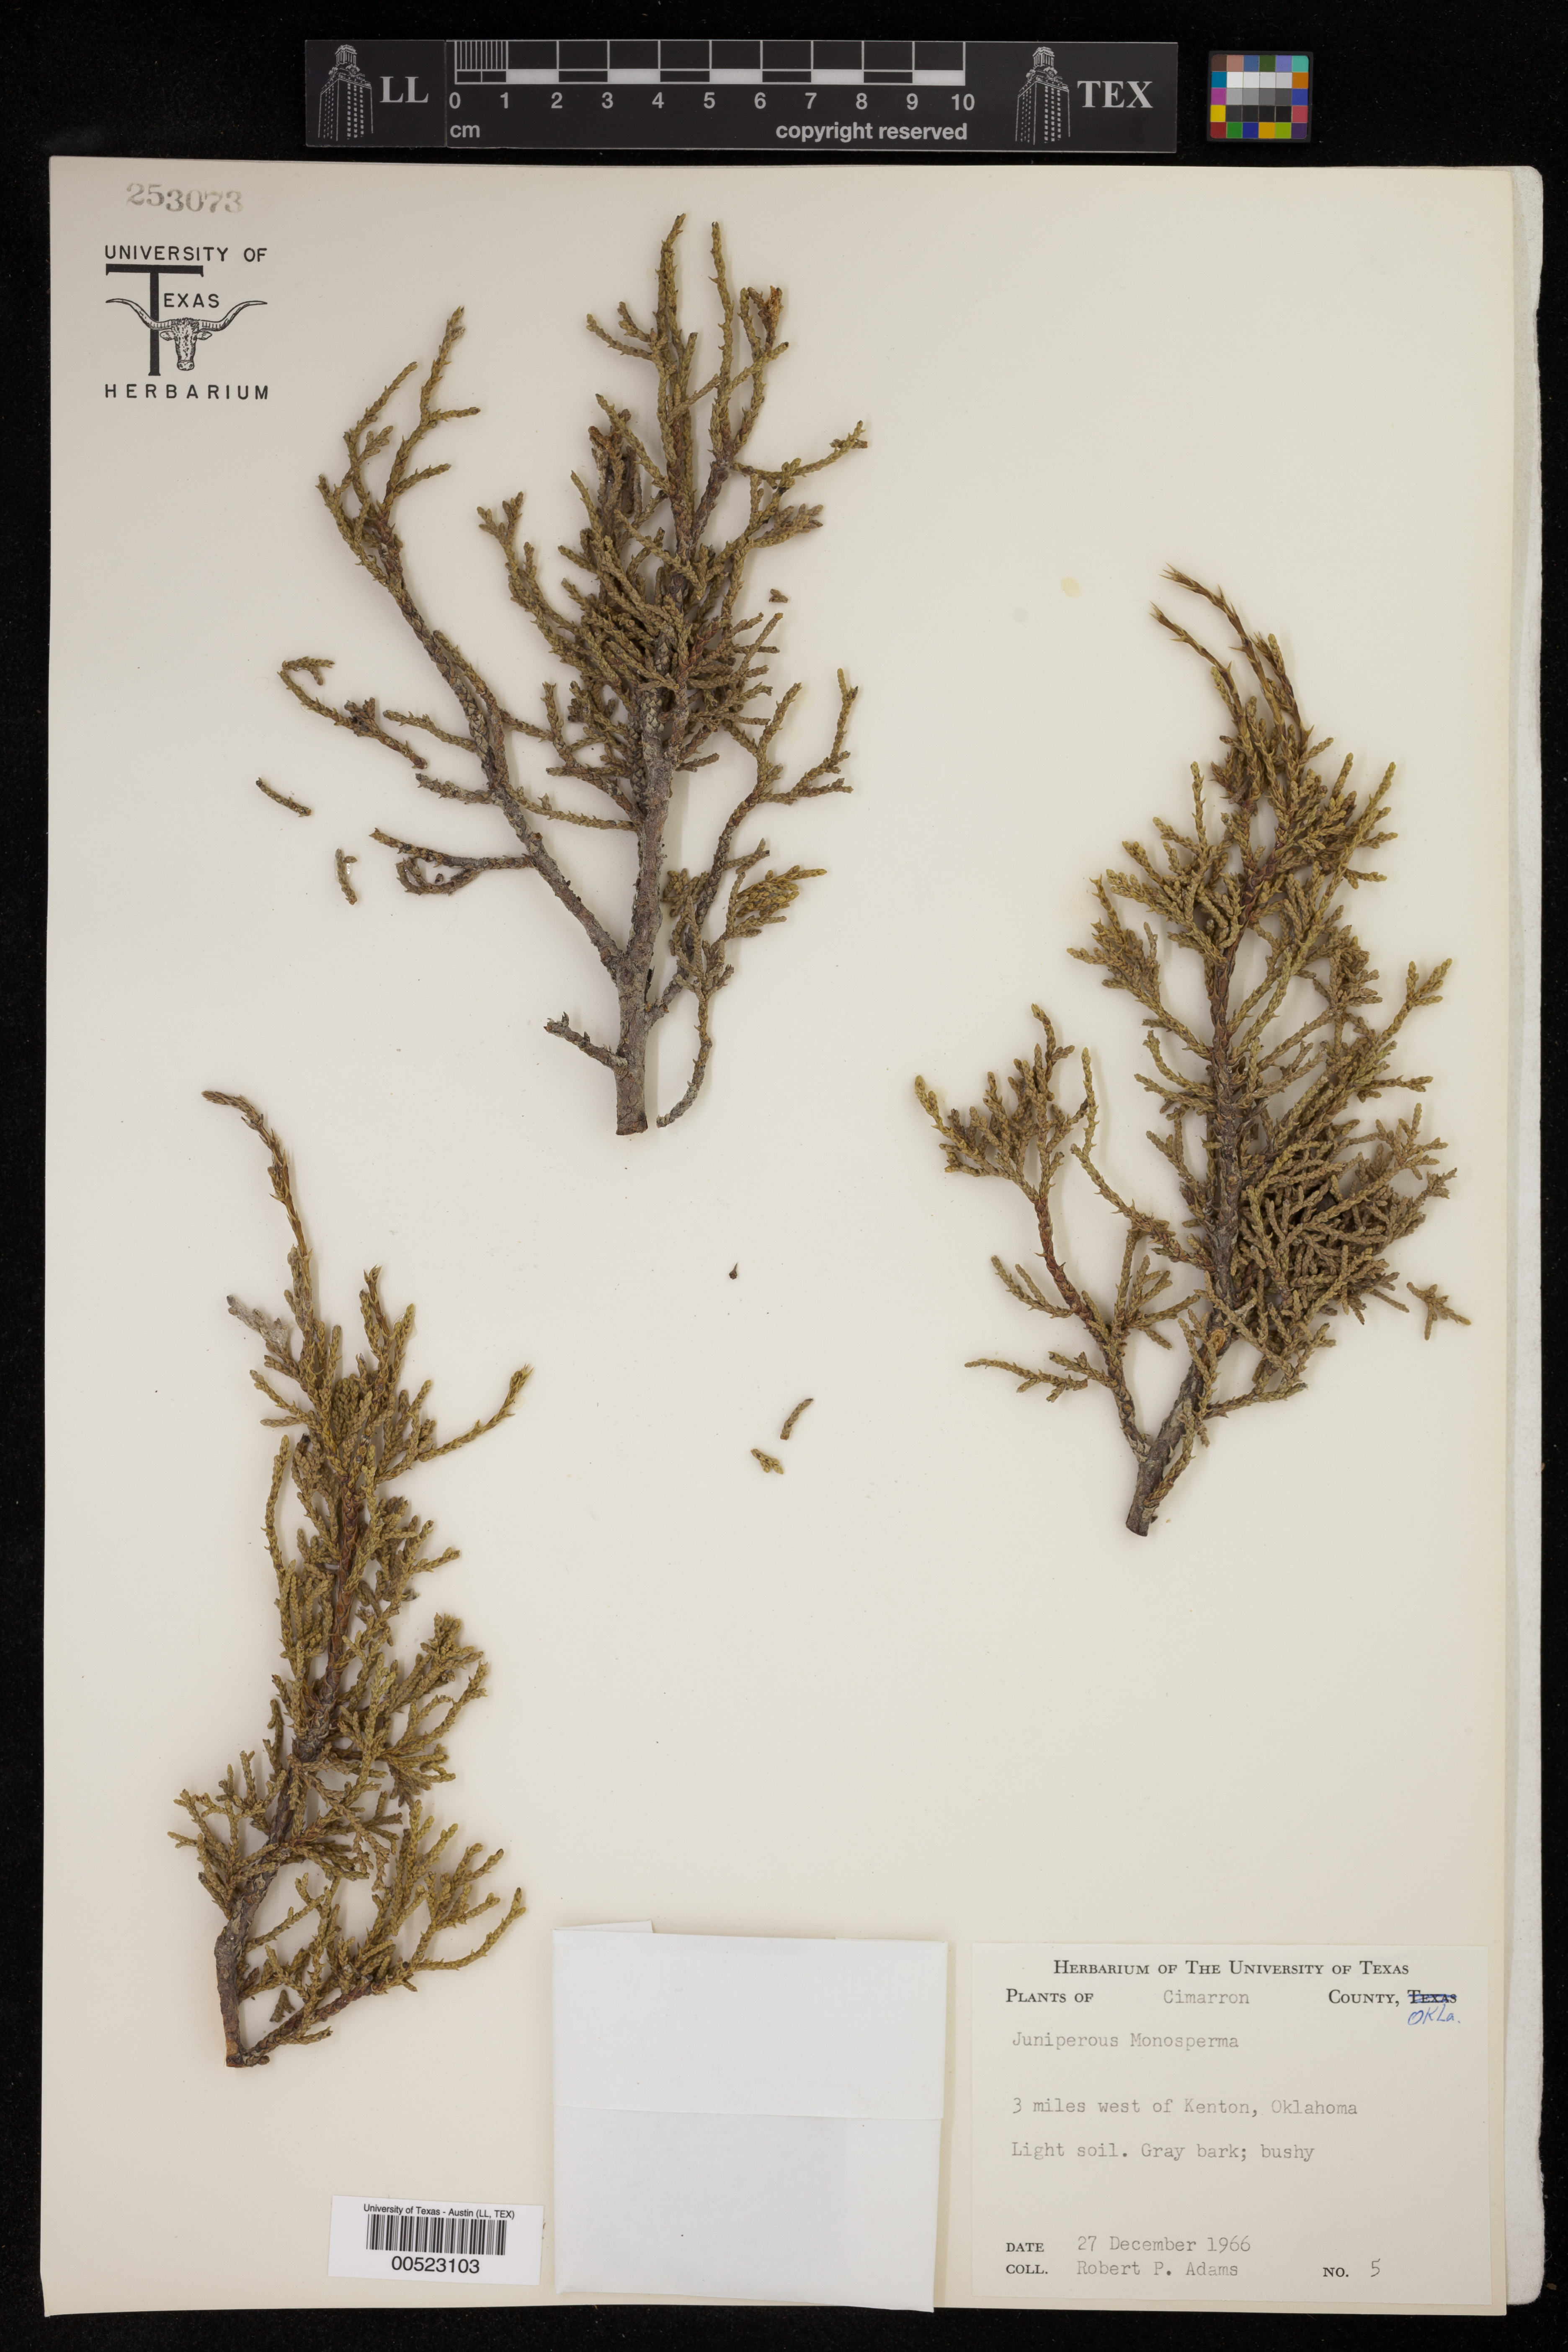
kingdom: Plantae
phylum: Tracheophyta
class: Pinopsida
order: Pinales
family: Cupressaceae
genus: Juniperus
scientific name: Juniperus monosperma
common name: One-seed juniper
